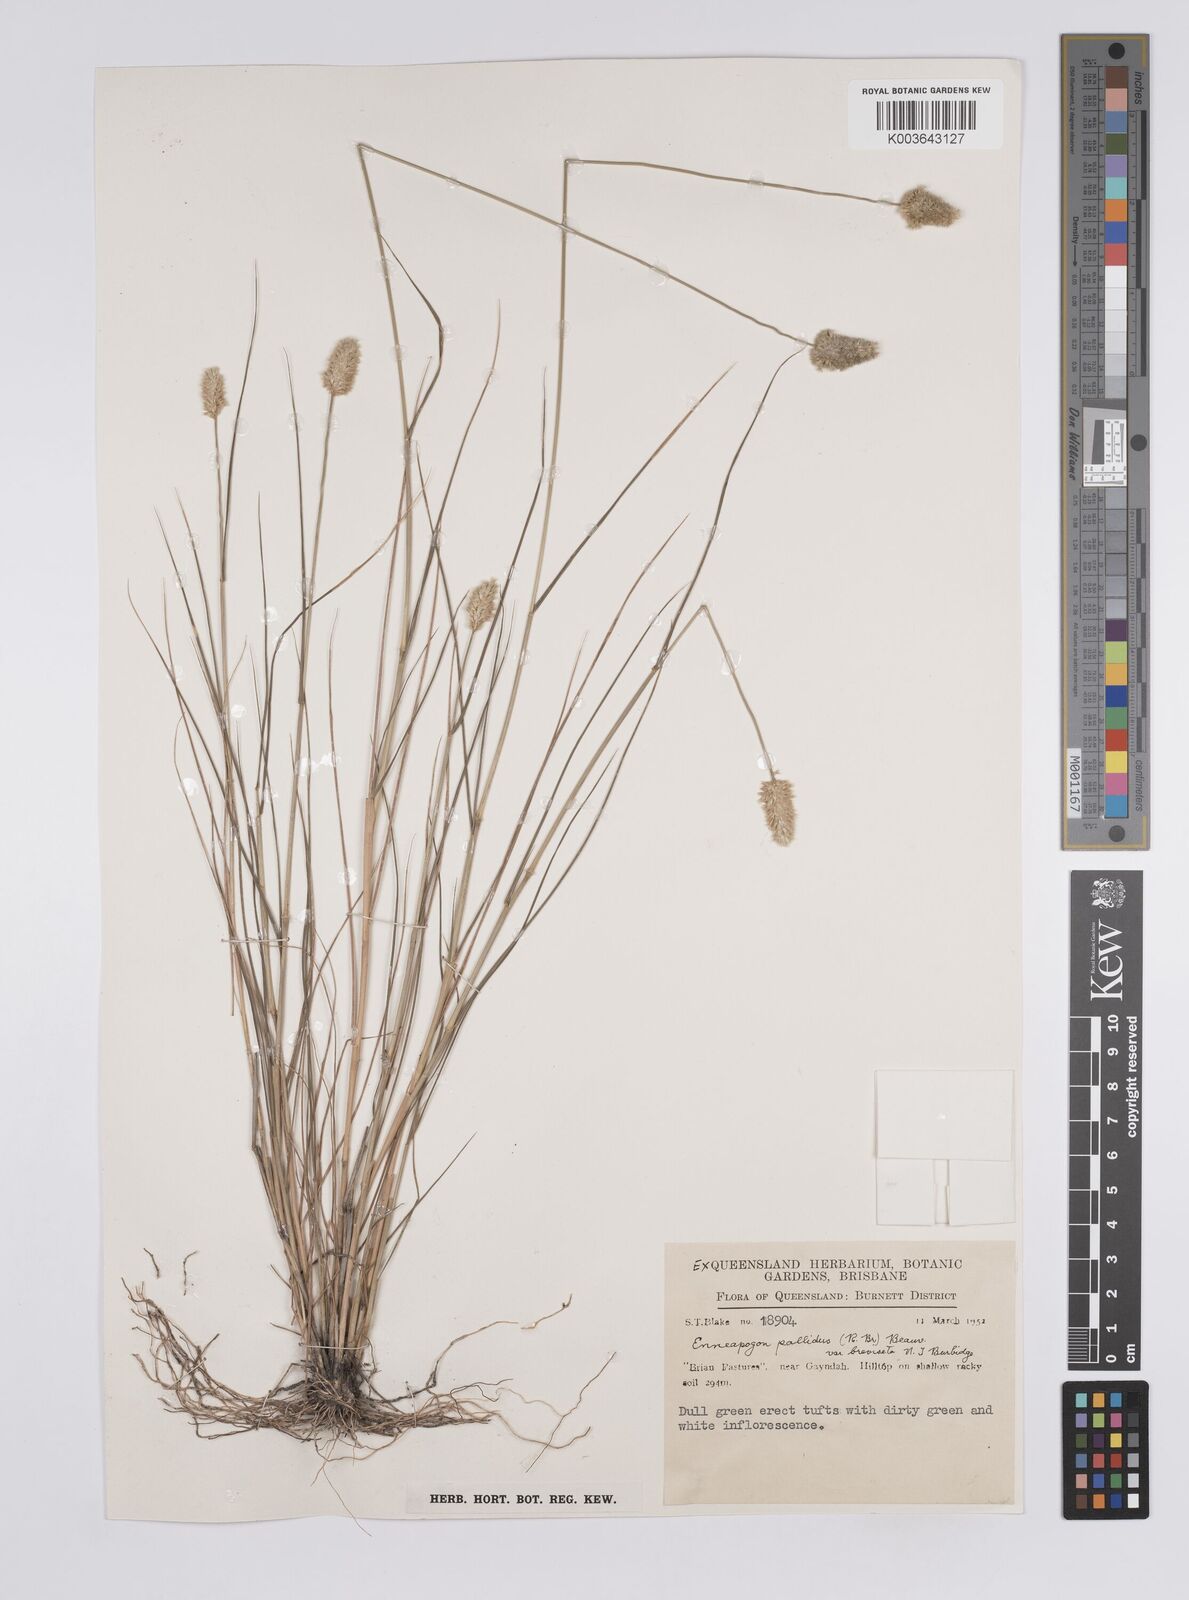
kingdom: Plantae
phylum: Tracheophyta
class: Liliopsida
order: Poales
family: Poaceae
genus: Enneapogon
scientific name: Enneapogon lindleyanus
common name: Conetop nineawn
